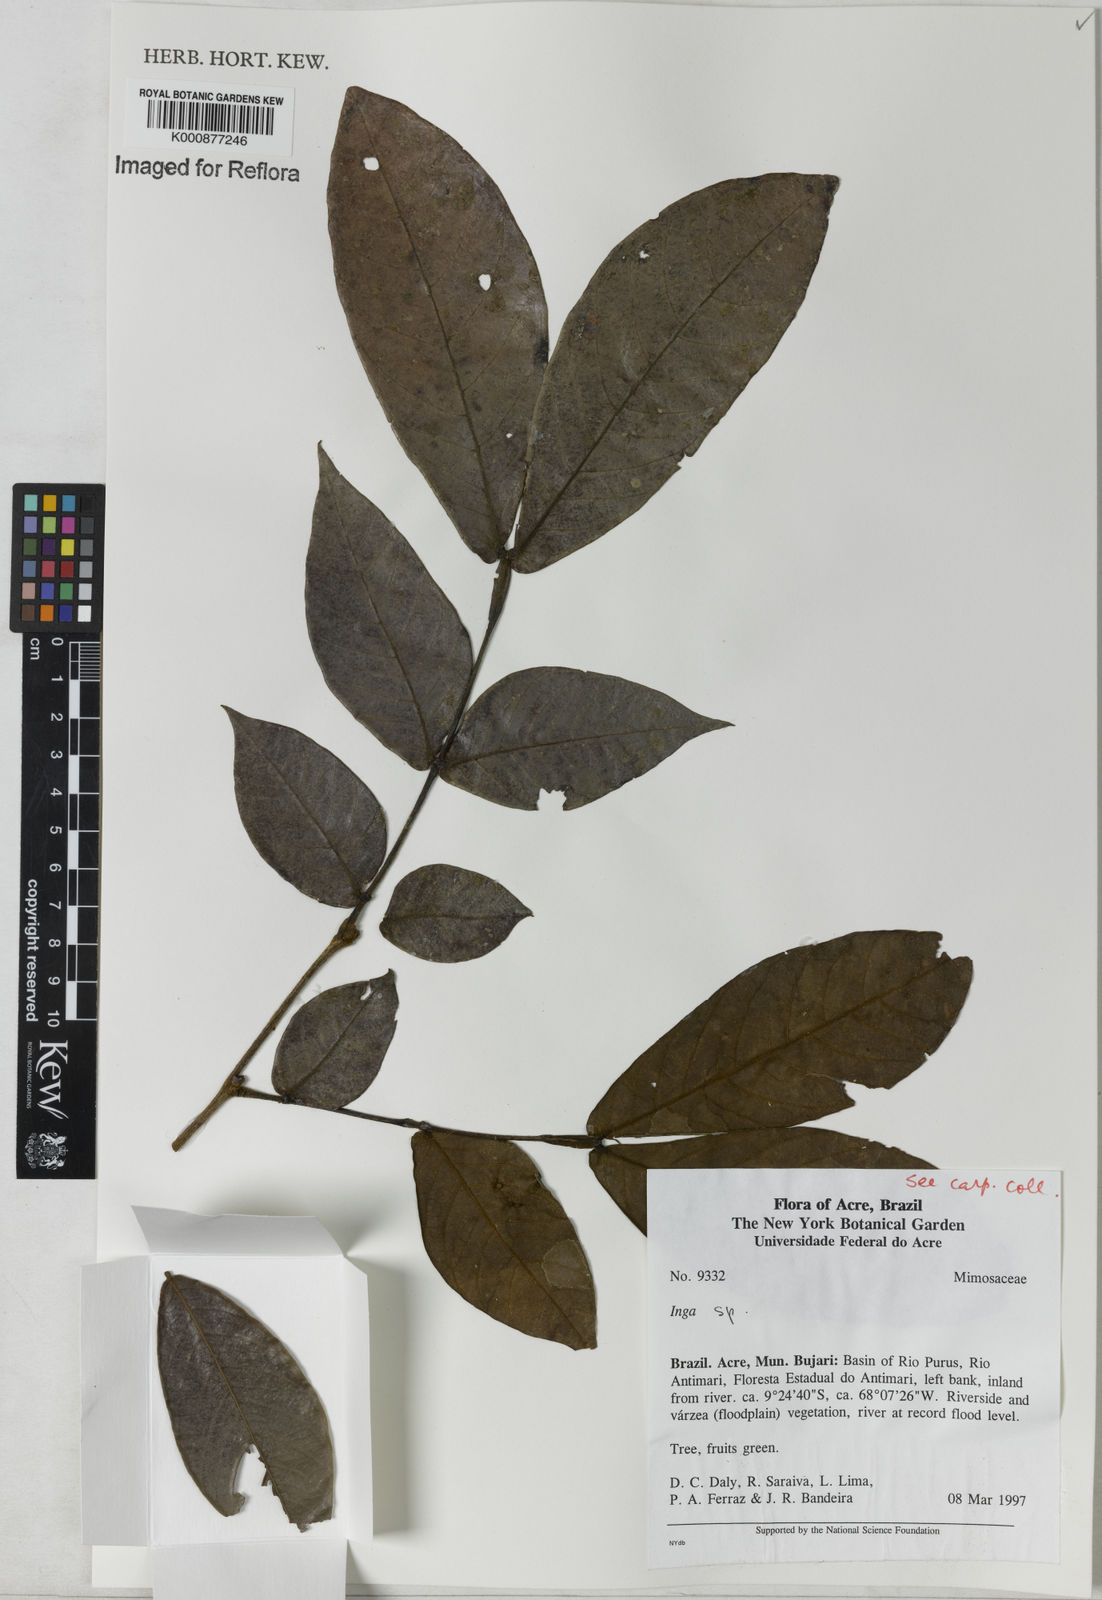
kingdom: Plantae
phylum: Tracheophyta
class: Magnoliopsida
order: Fabales
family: Fabaceae
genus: Inga
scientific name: Inga
